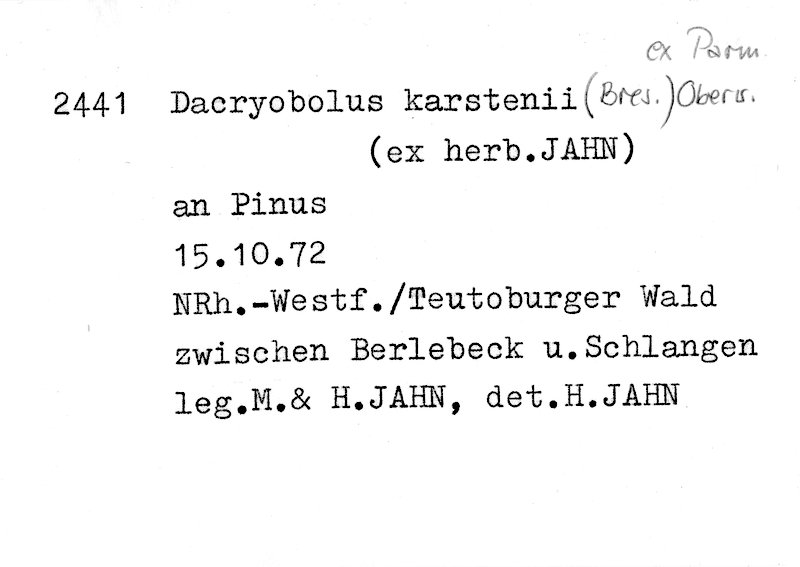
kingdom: Fungi
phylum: Basidiomycota
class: Agaricomycetes
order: Polyporales
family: Dacryobolaceae
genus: Dacryobolus
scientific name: Dacryobolus karstenii
